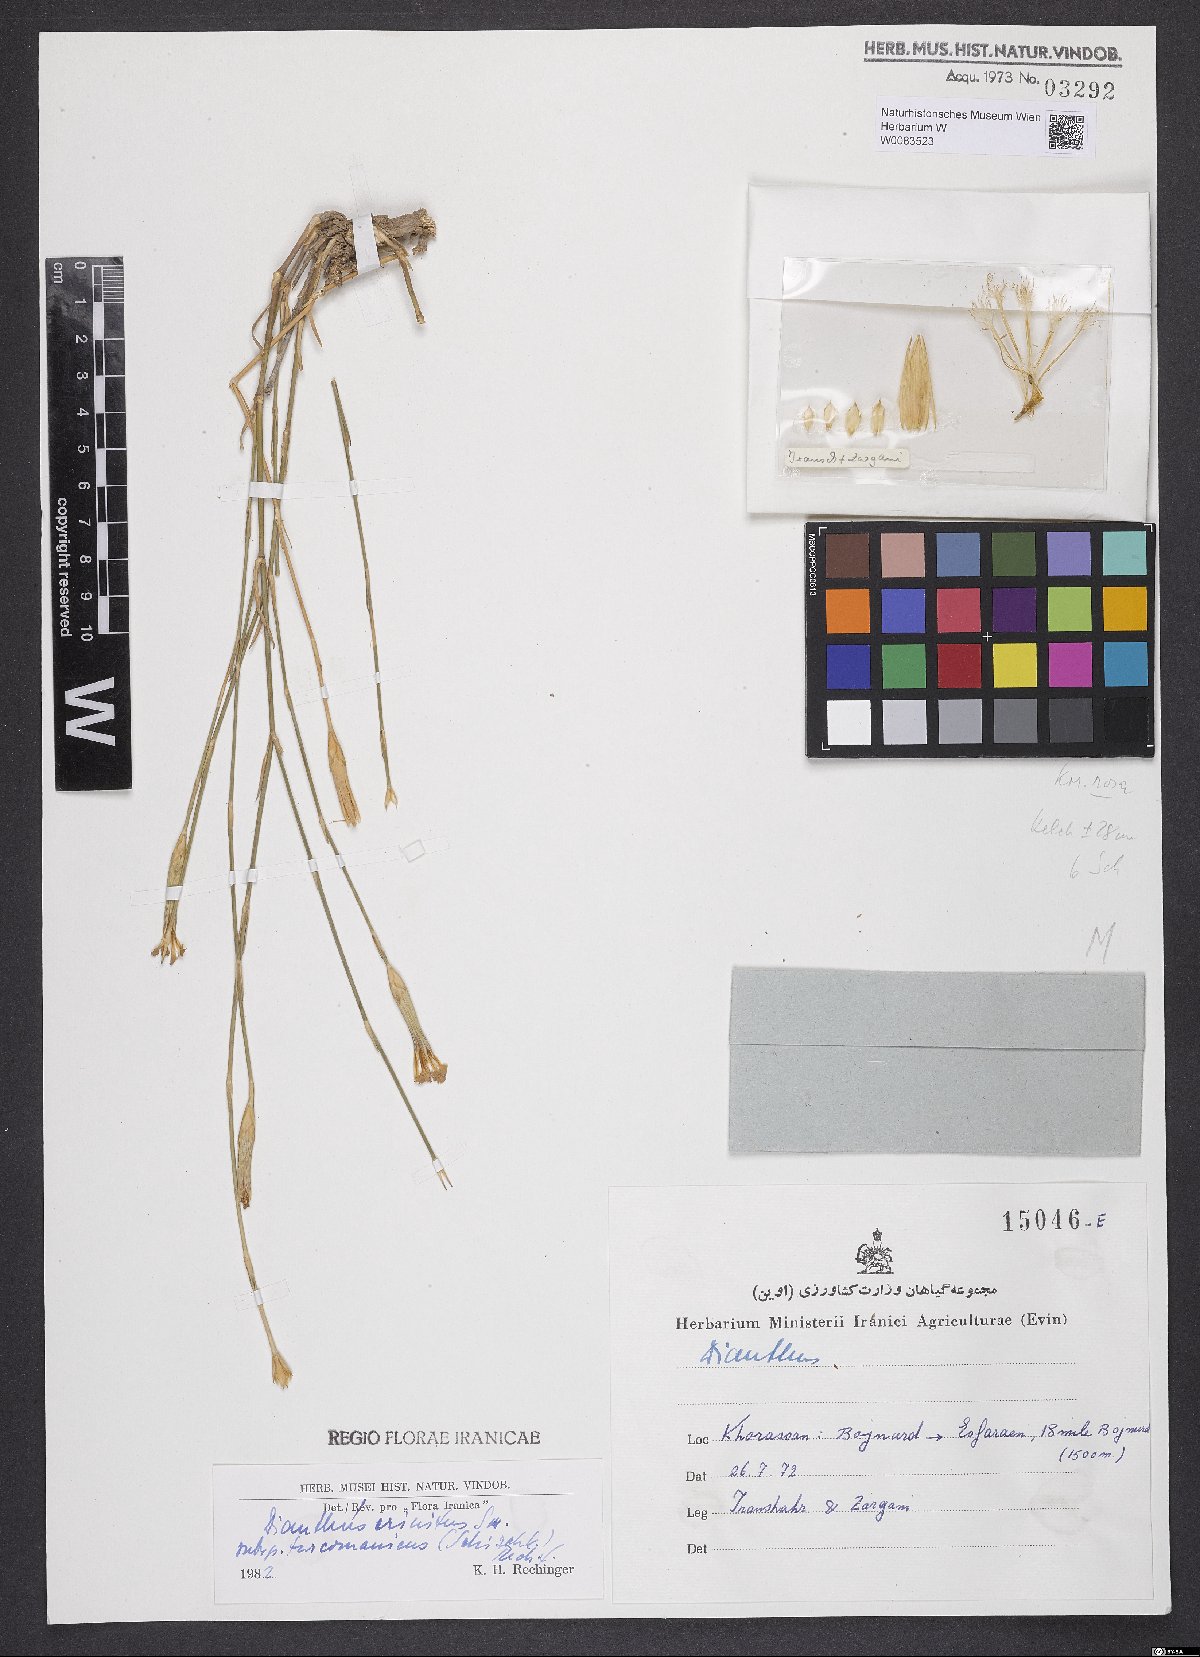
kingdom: Plantae
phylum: Tracheophyta
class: Magnoliopsida
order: Caryophyllales
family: Caryophyllaceae
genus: Dianthus
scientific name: Dianthus turkestanicus
